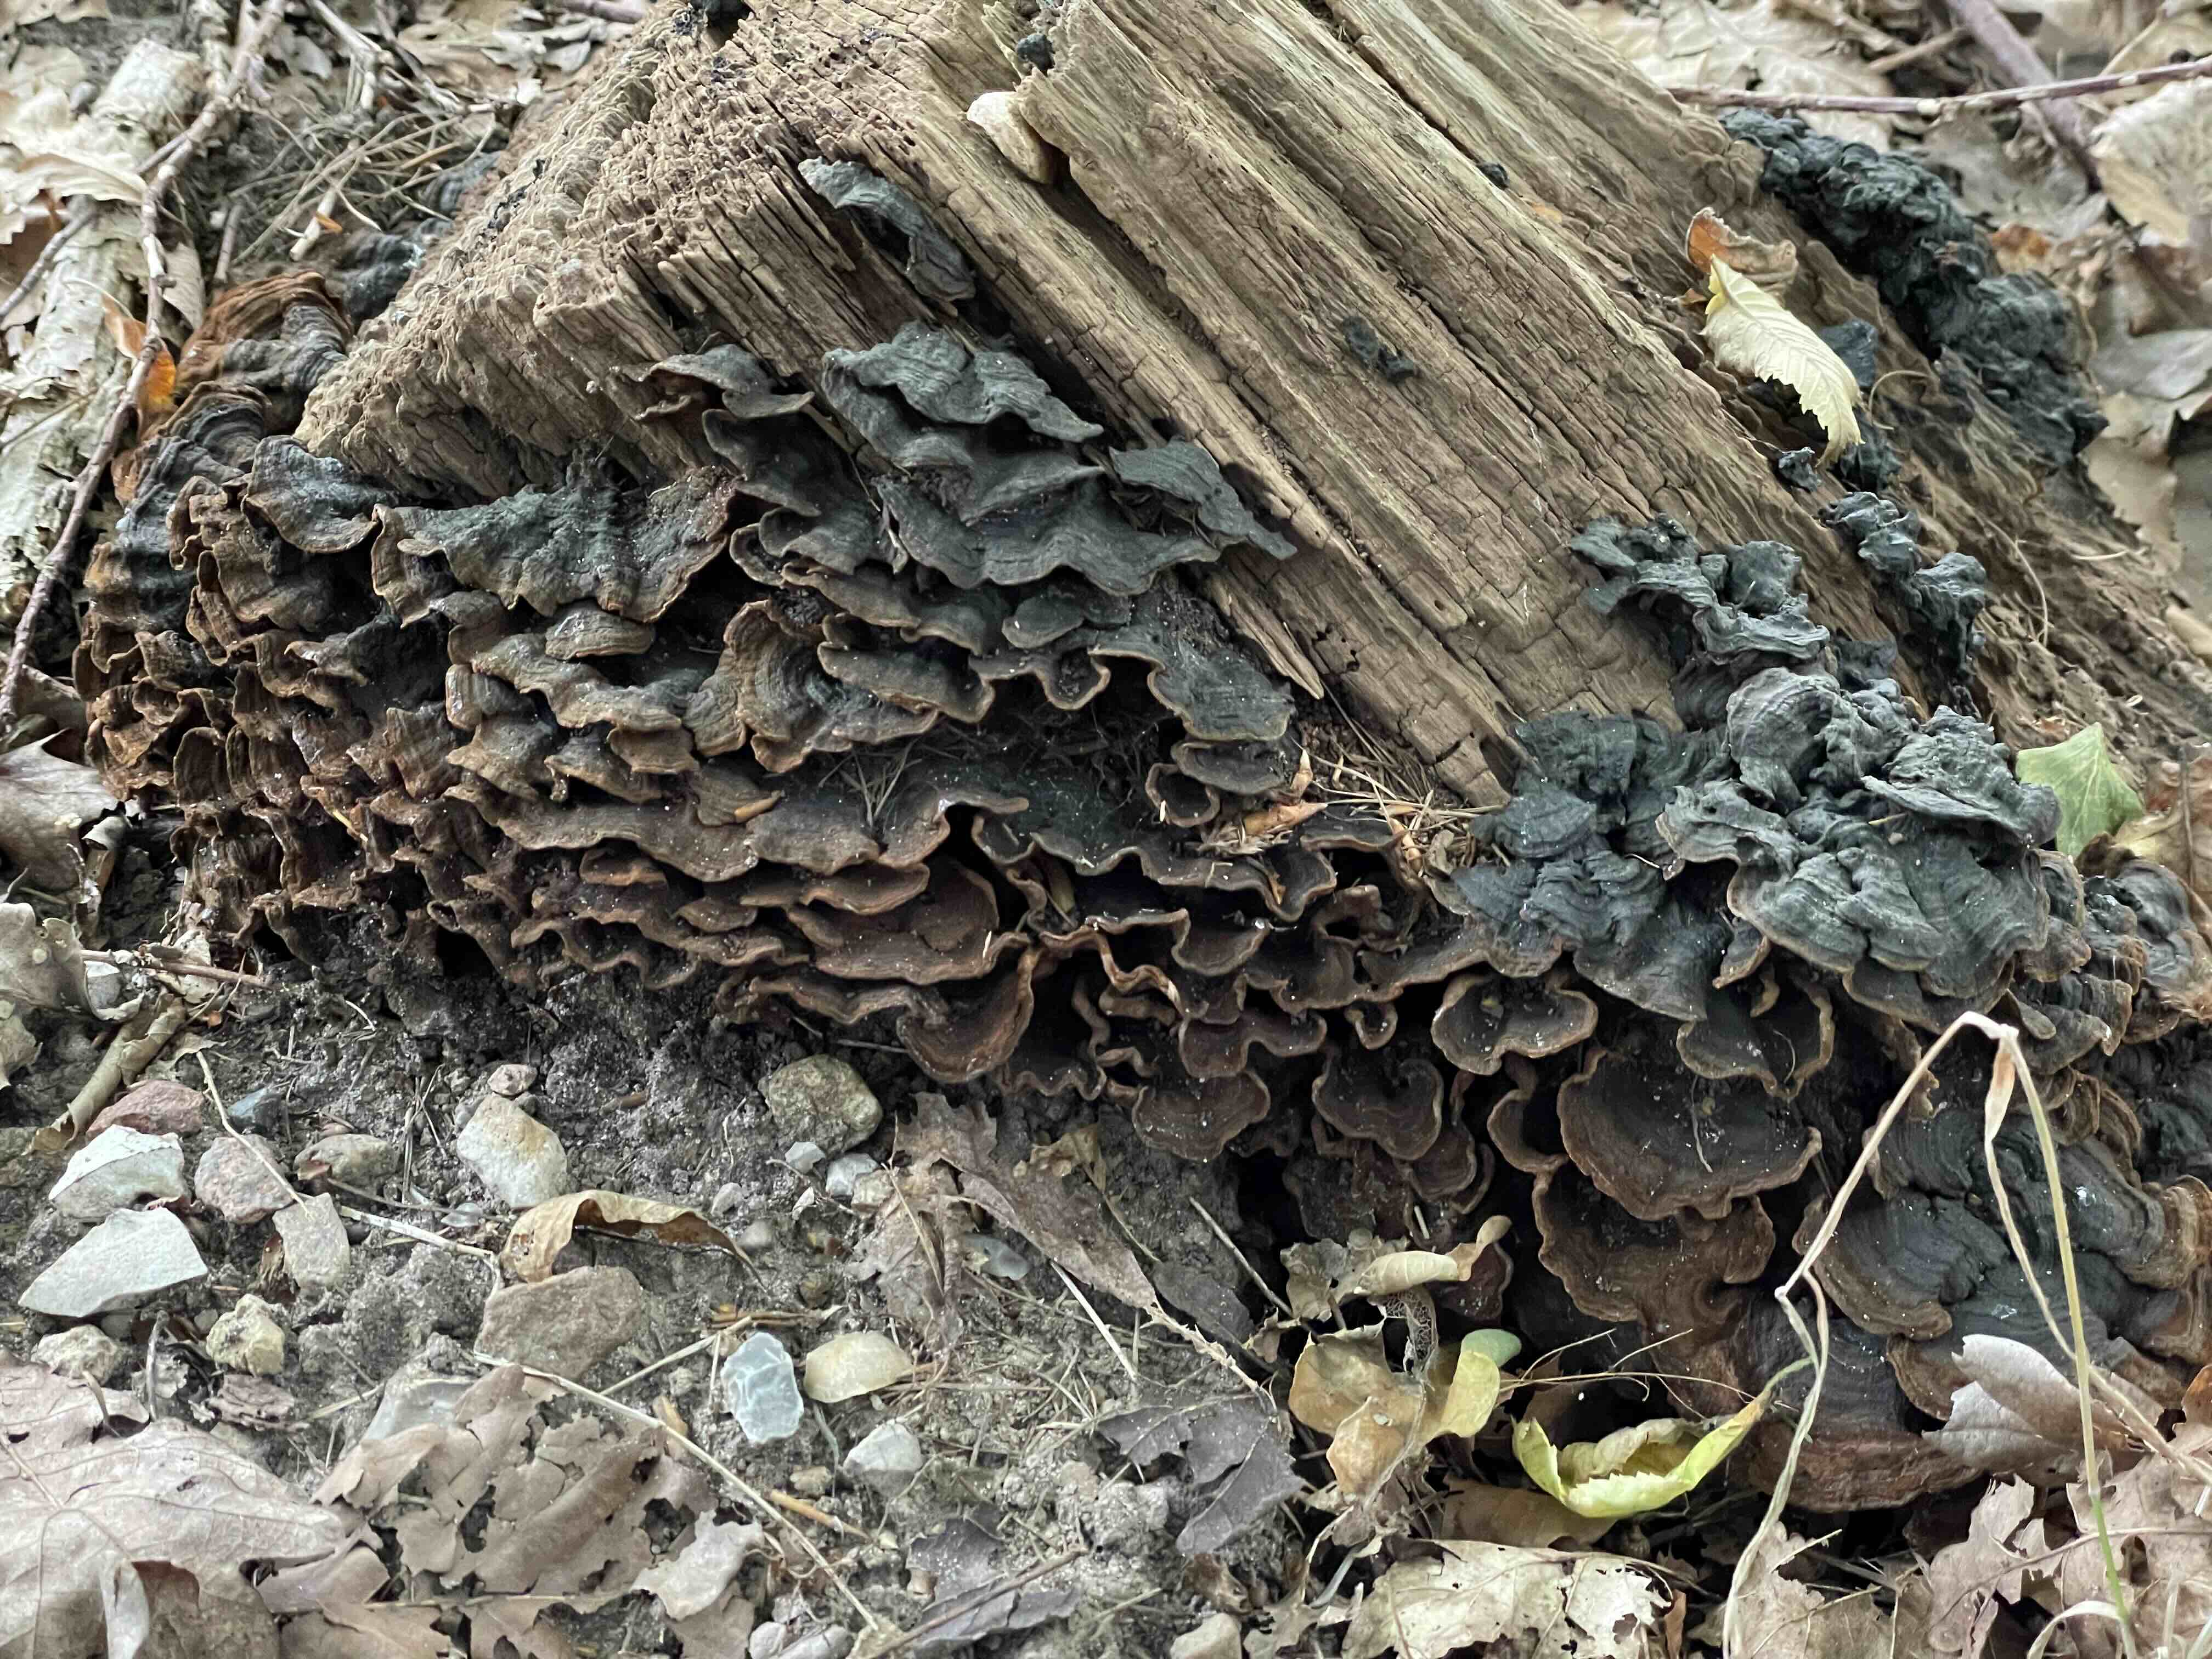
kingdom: Fungi
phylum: Basidiomycota
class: Agaricomycetes
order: Hymenochaetales
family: Hymenochaetaceae
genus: Hymenochaete
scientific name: Hymenochaete rubiginosa
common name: stiv ruslædersvamp
